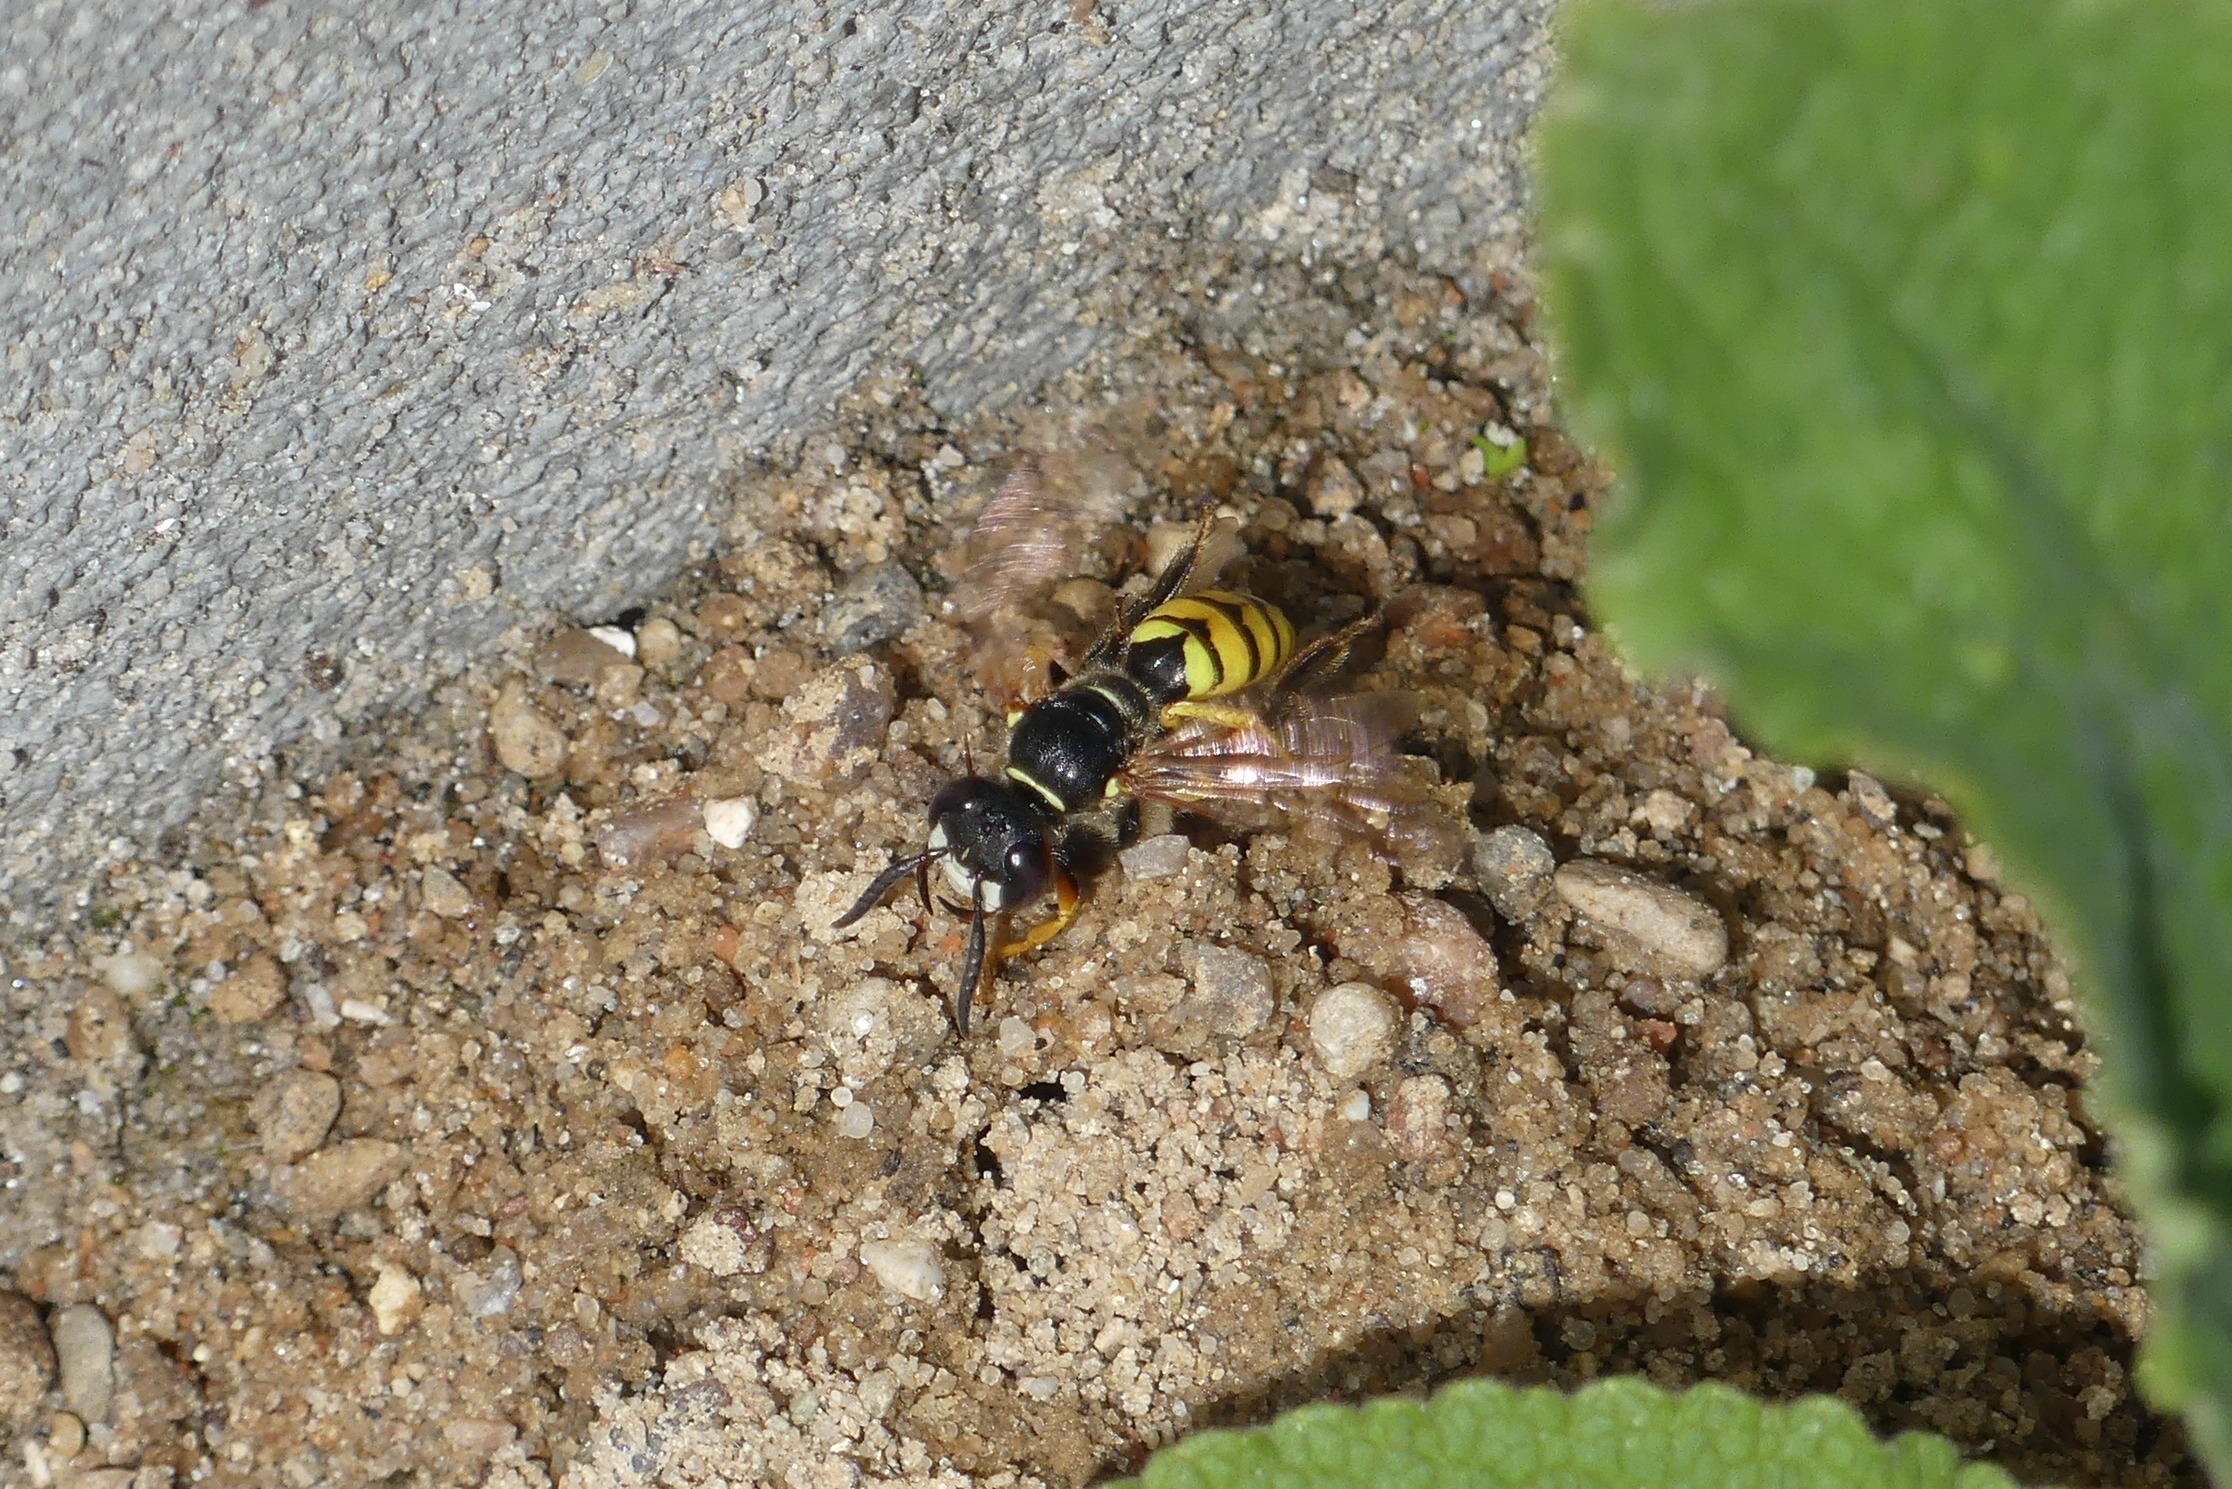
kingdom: Animalia
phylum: Arthropoda
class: Insecta
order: Hymenoptera
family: Crabronidae
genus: Philanthus
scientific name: Philanthus triangulum
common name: Biulv
